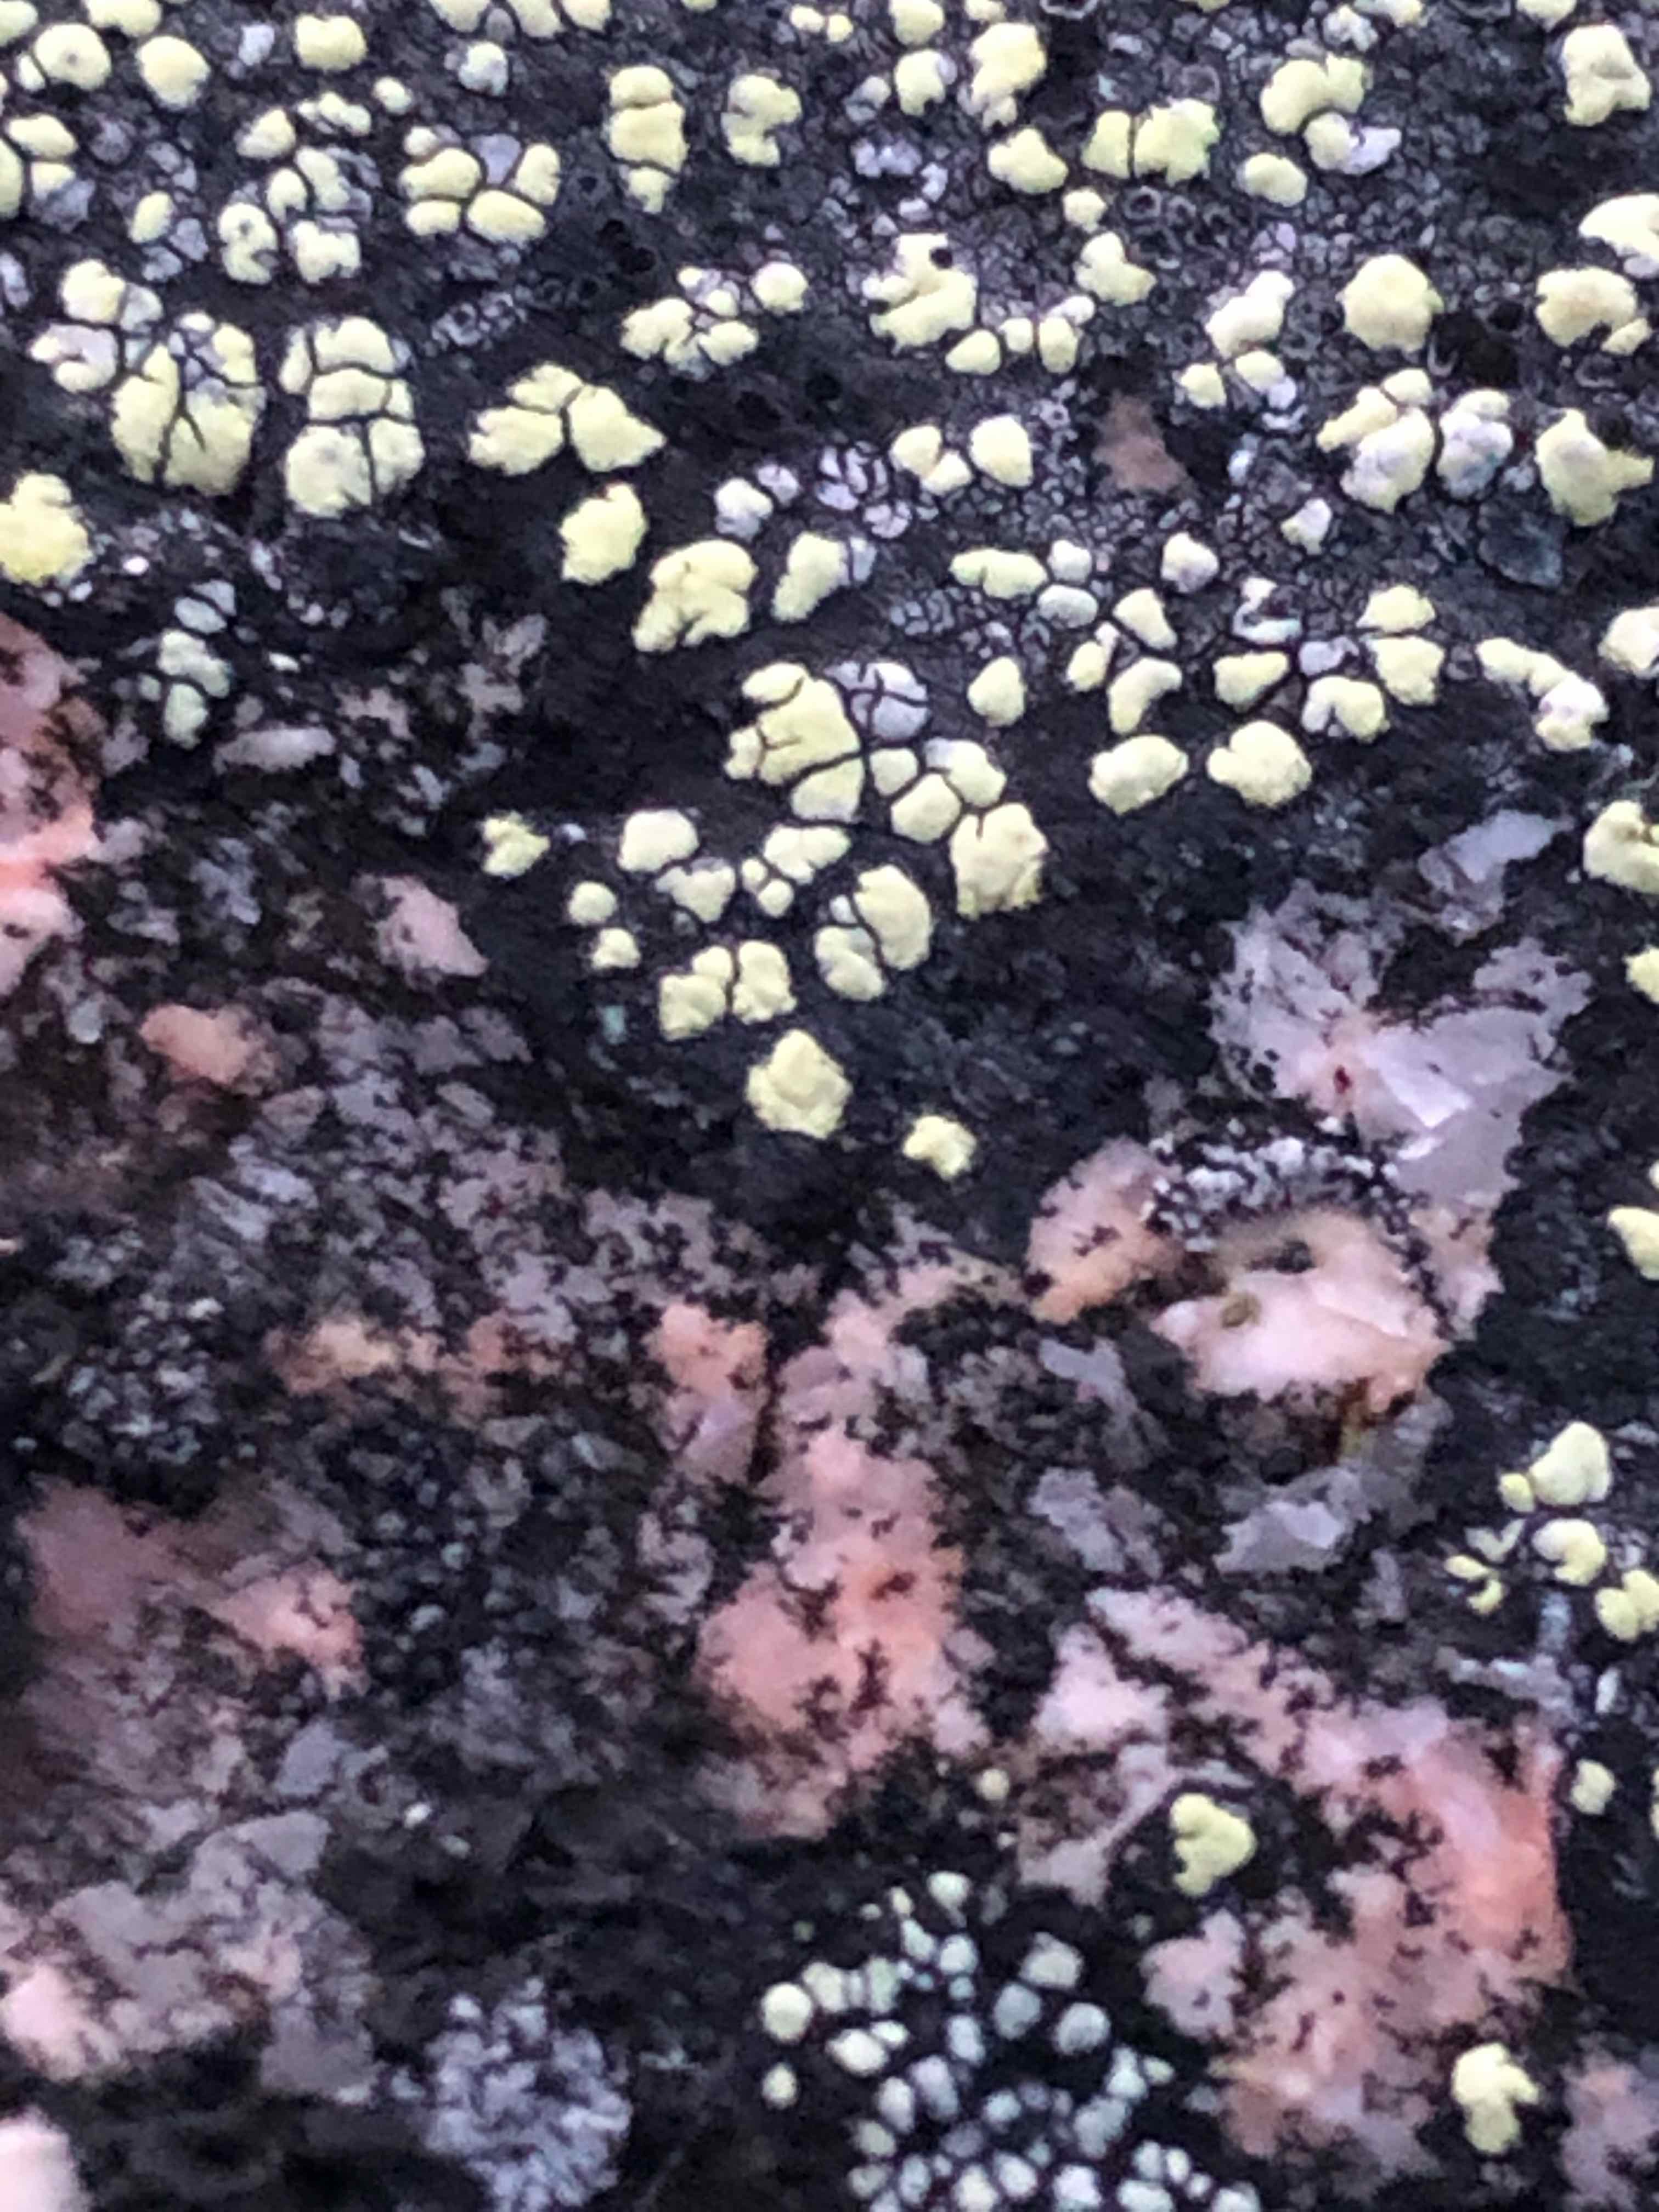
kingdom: Fungi
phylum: Ascomycota
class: Lecanoromycetes
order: Rhizocarpales
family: Rhizocarpaceae
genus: Rhizocarpon
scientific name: Rhizocarpon
